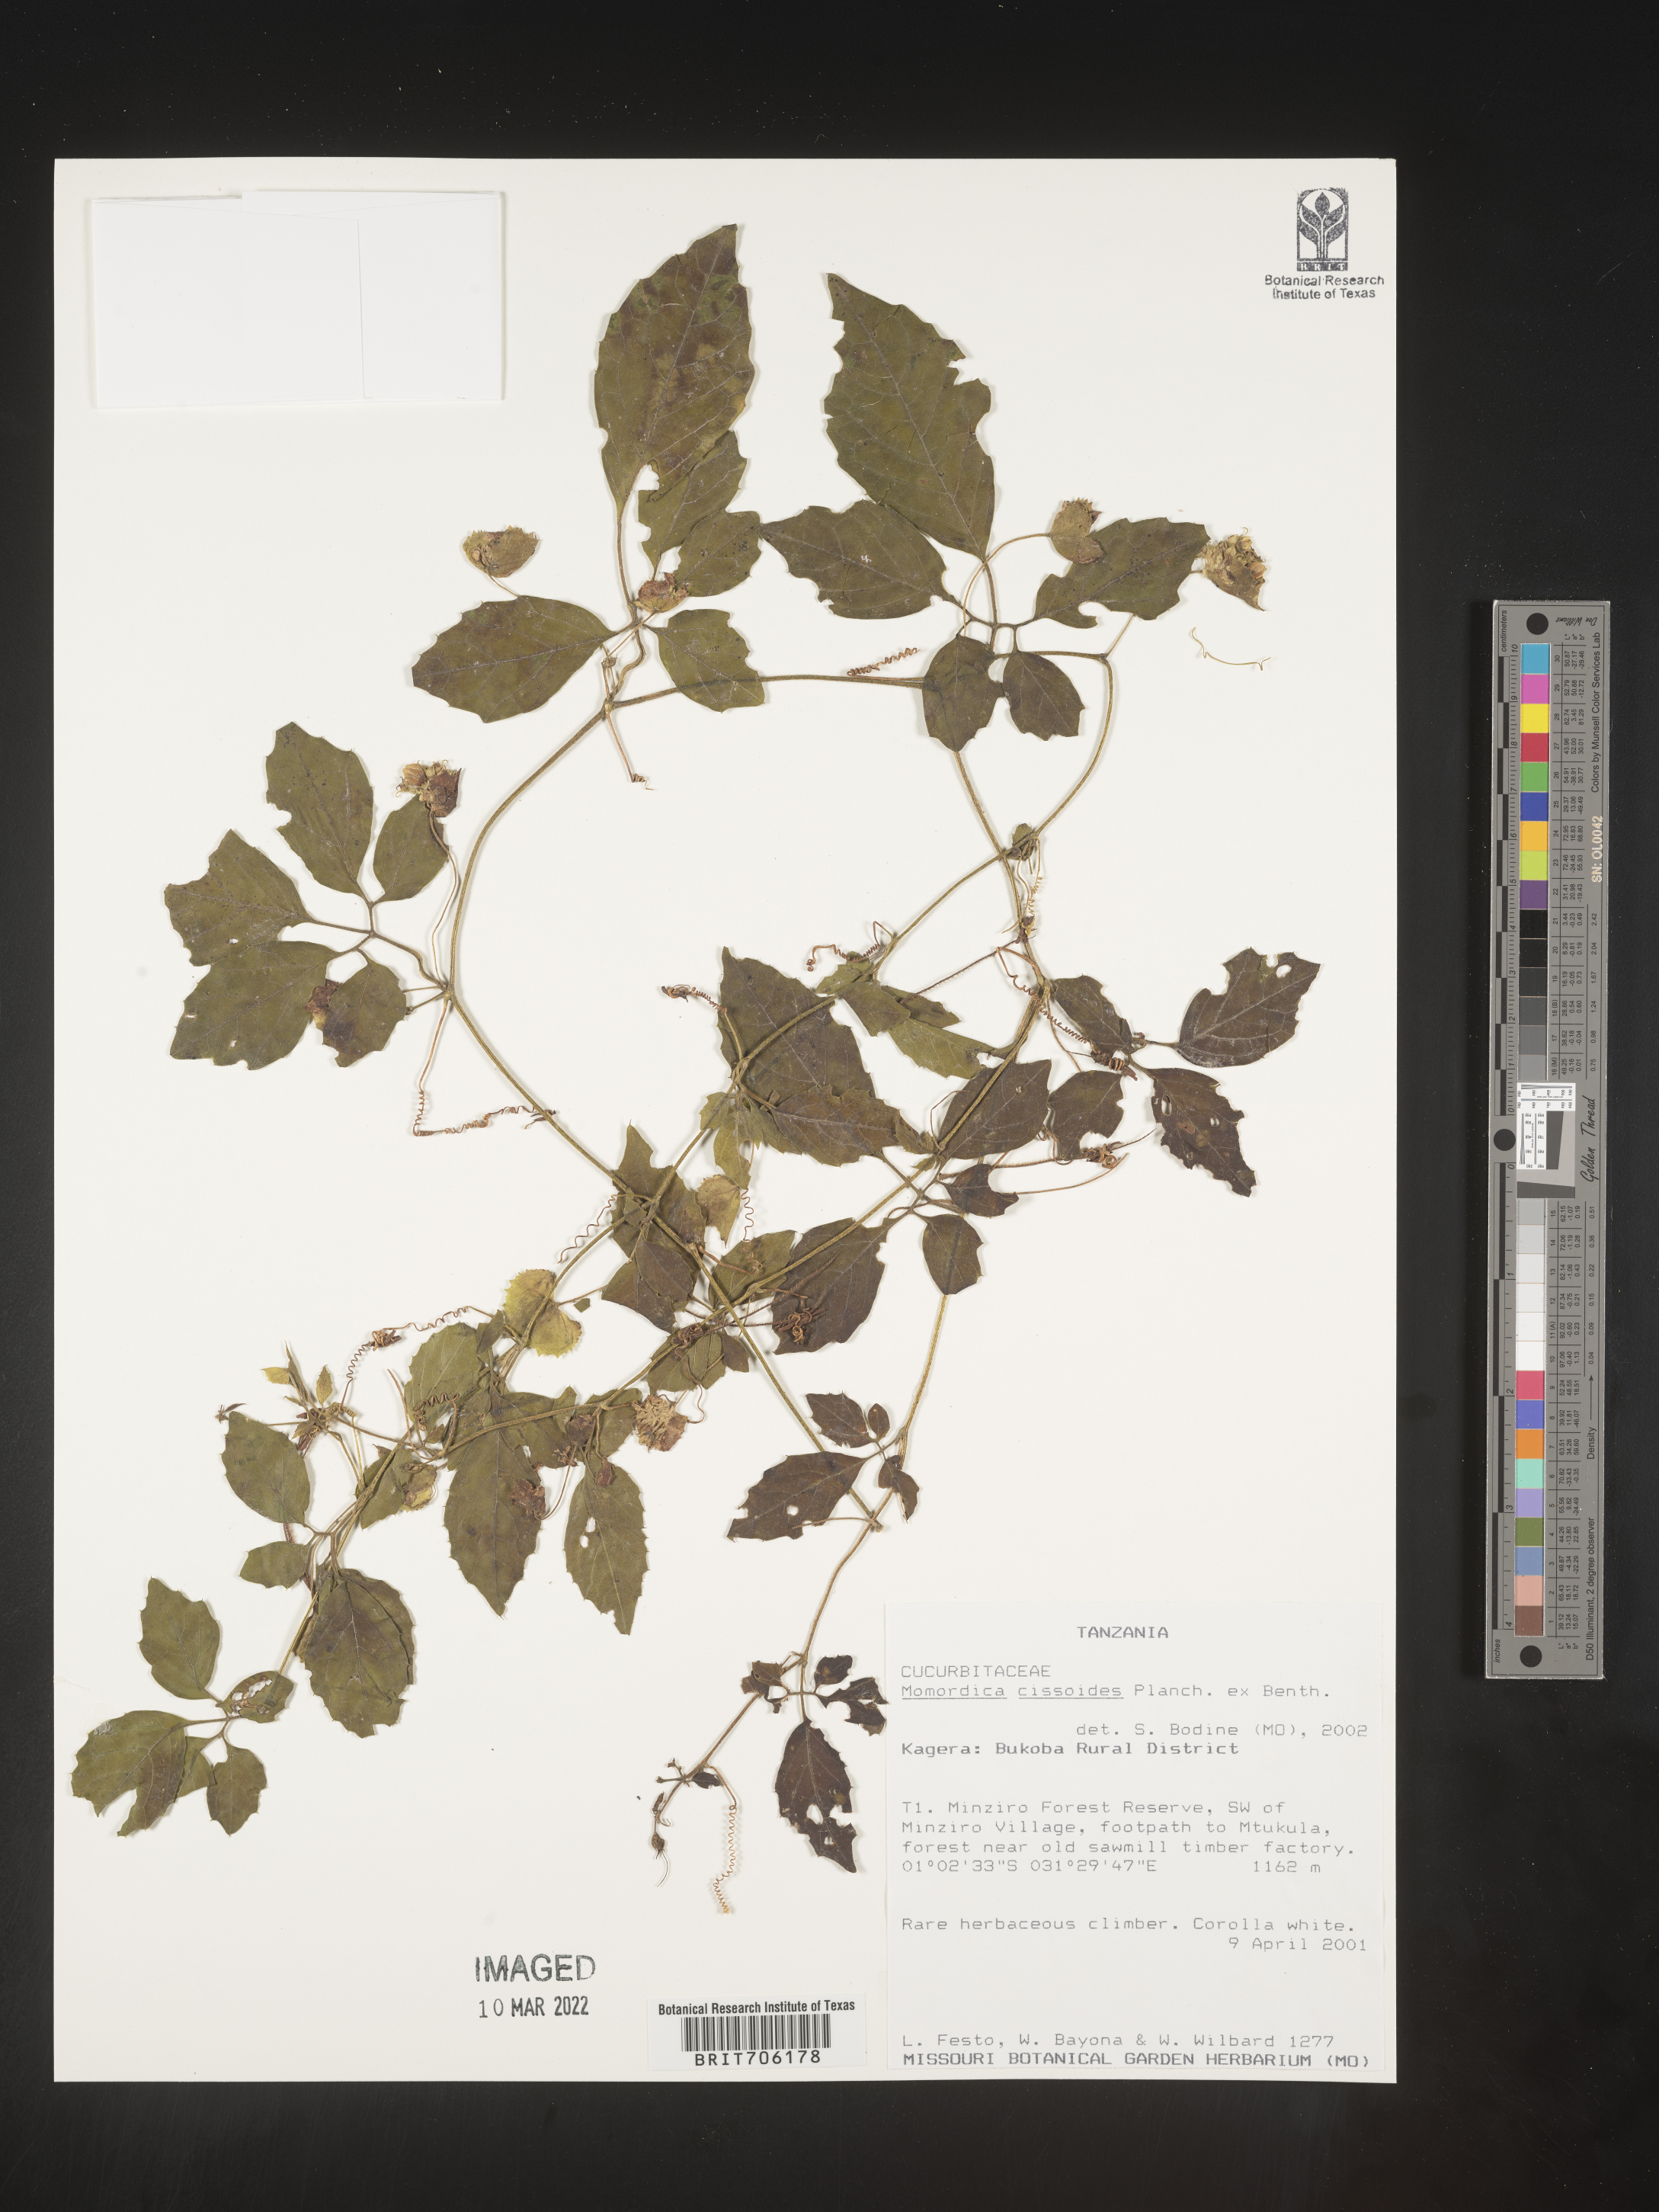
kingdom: Plantae
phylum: Tracheophyta
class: Magnoliopsida
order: Cucurbitales
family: Cucurbitaceae
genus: Momordica
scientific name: Momordica
